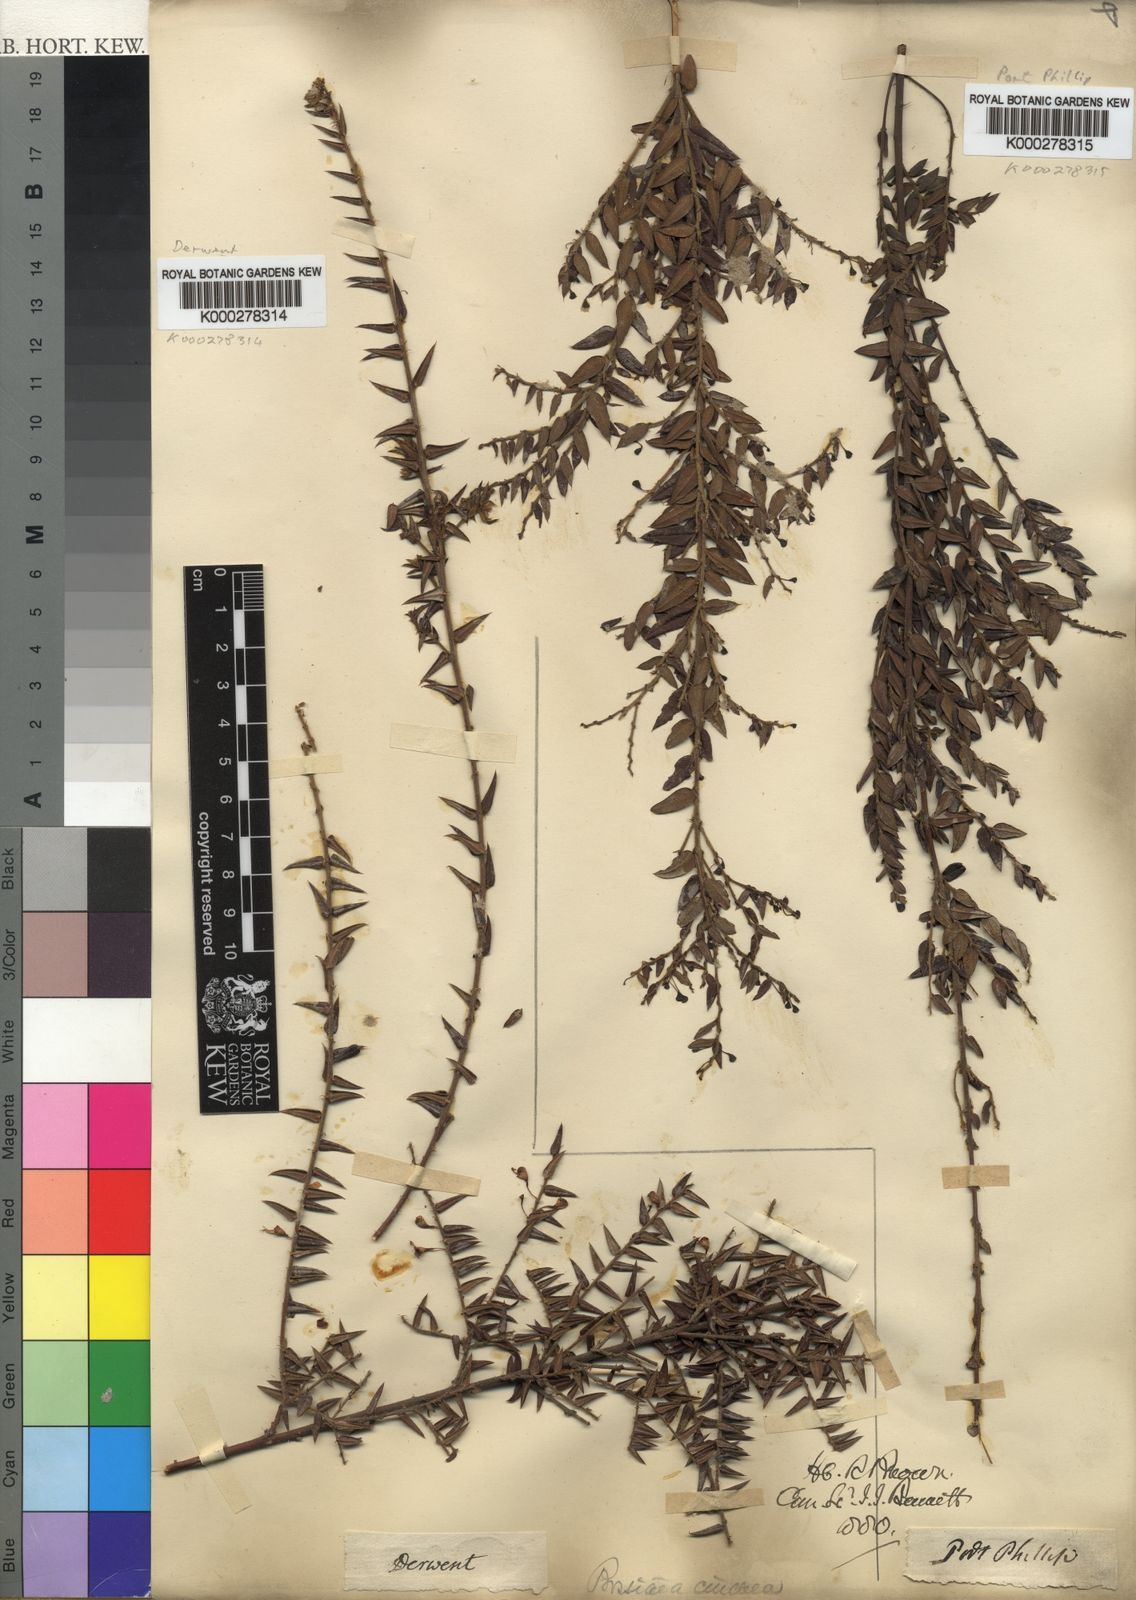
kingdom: Plantae
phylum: Tracheophyta
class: Magnoliopsida
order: Fabales
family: Fabaceae
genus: Bossiaea
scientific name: Bossiaea cinerea
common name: Showy bossiaea
